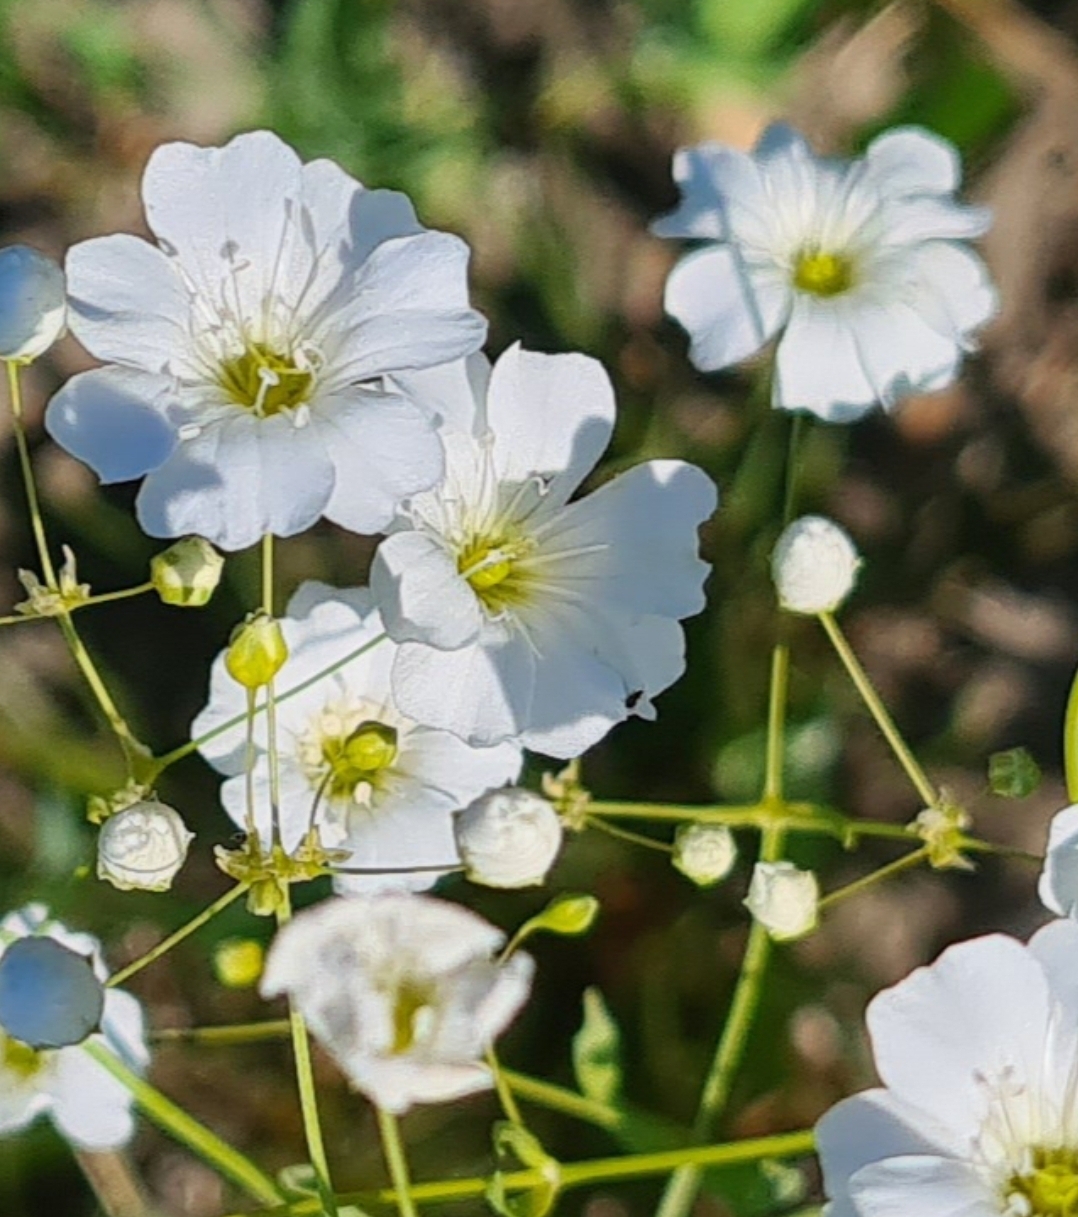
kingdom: Plantae
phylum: Tracheophyta
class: Magnoliopsida
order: Caryophyllales
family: Caryophyllaceae
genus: Gypsophila
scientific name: Gypsophila elegans
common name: Enårig brudeslør
